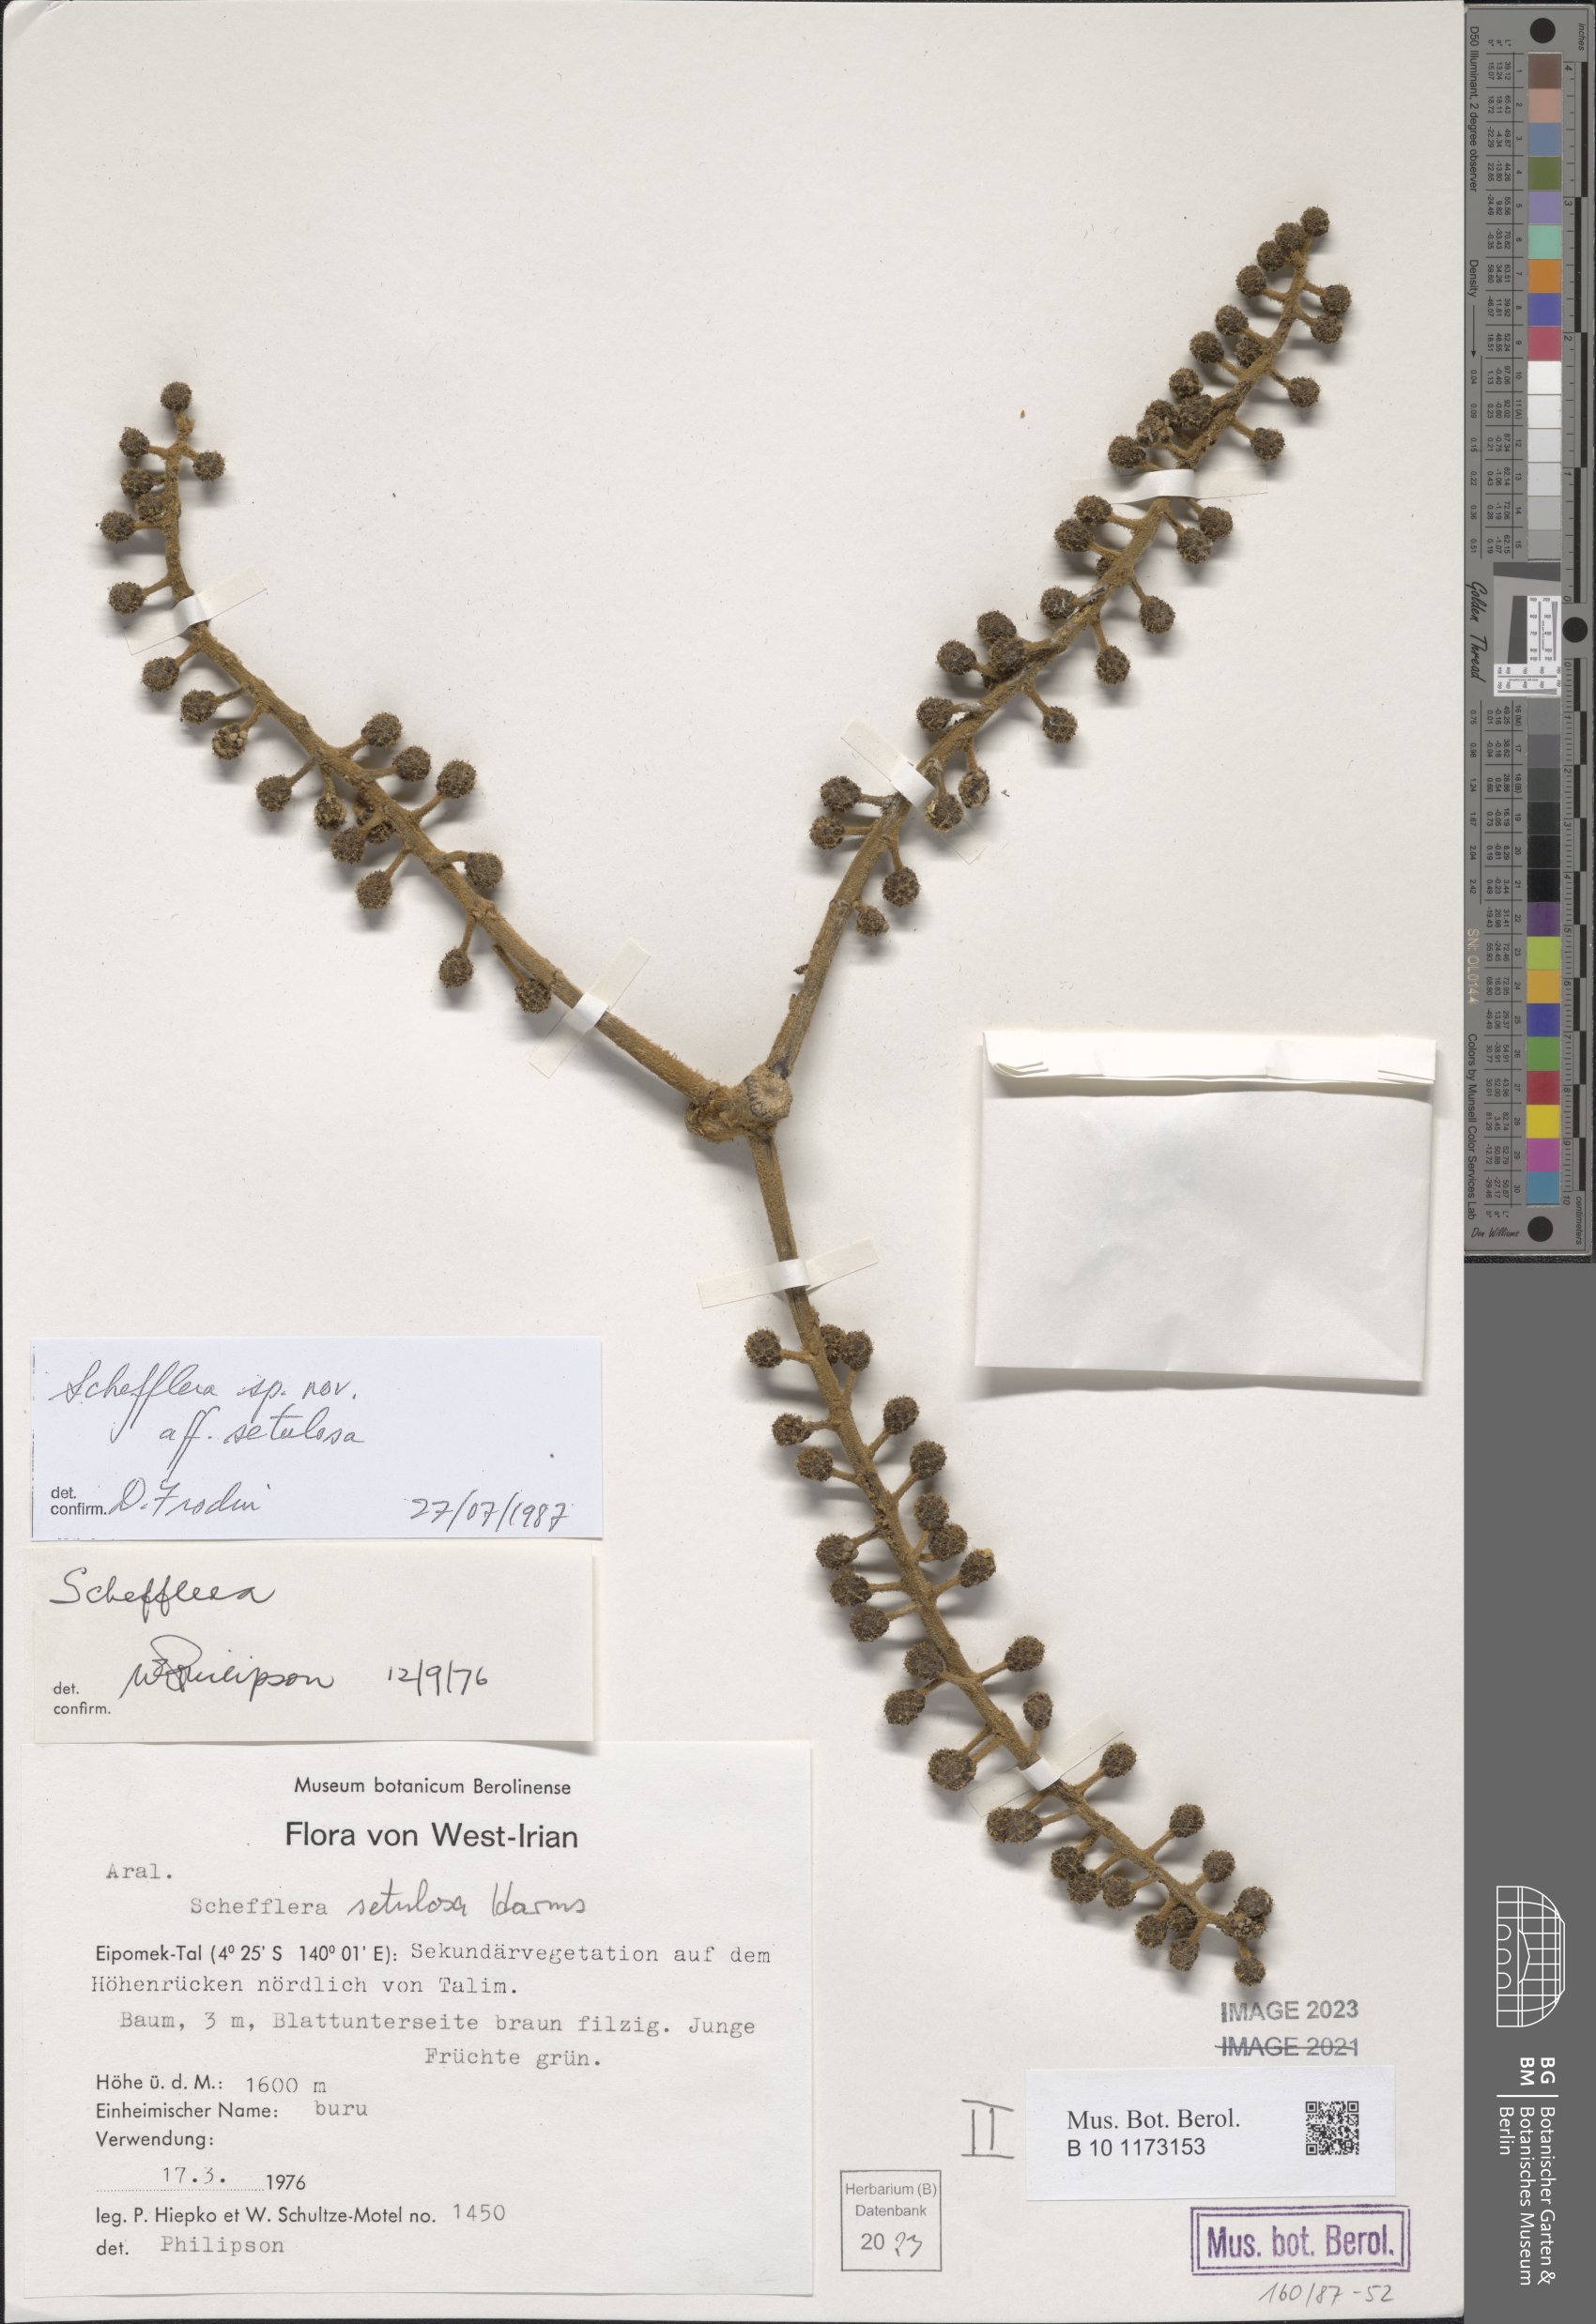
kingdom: Plantae
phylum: Tracheophyta
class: Magnoliopsida
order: Apiales
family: Araliaceae
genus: Schefflera
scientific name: Schefflera
